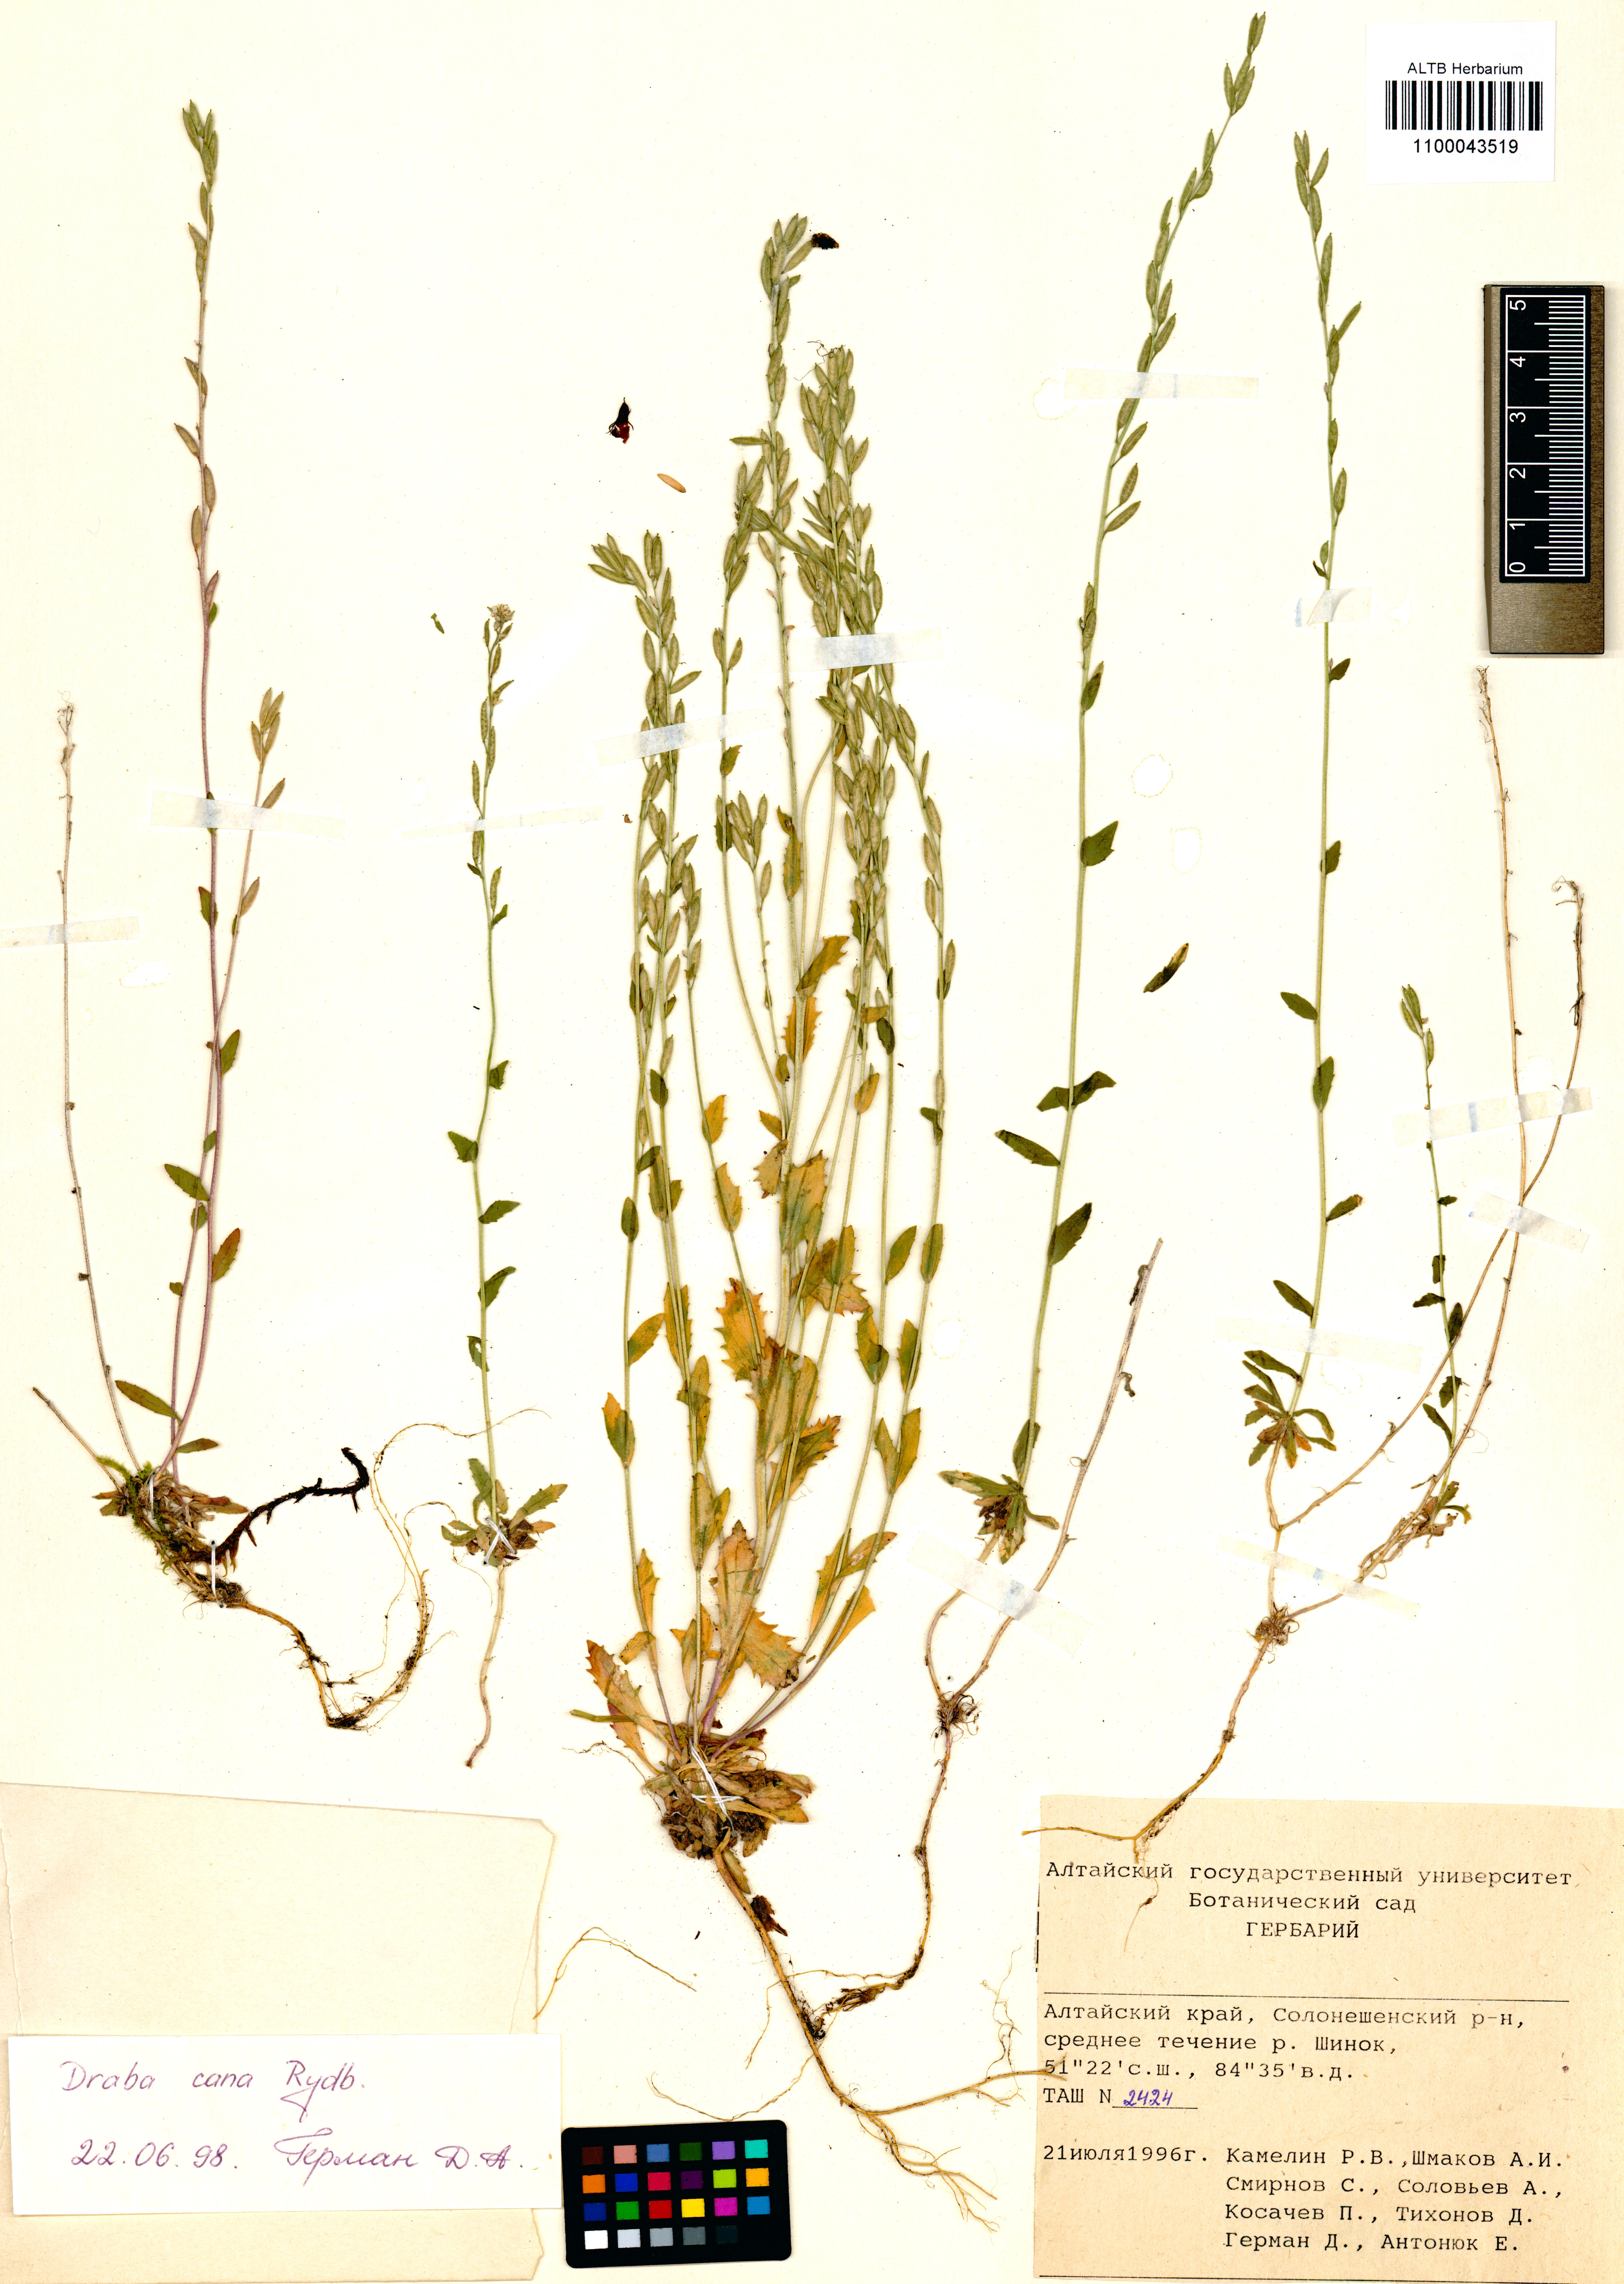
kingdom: Plantae
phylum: Tracheophyta
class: Magnoliopsida
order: Brassicales
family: Brassicaceae
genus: Draba
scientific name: Draba cana
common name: Hoary draba
